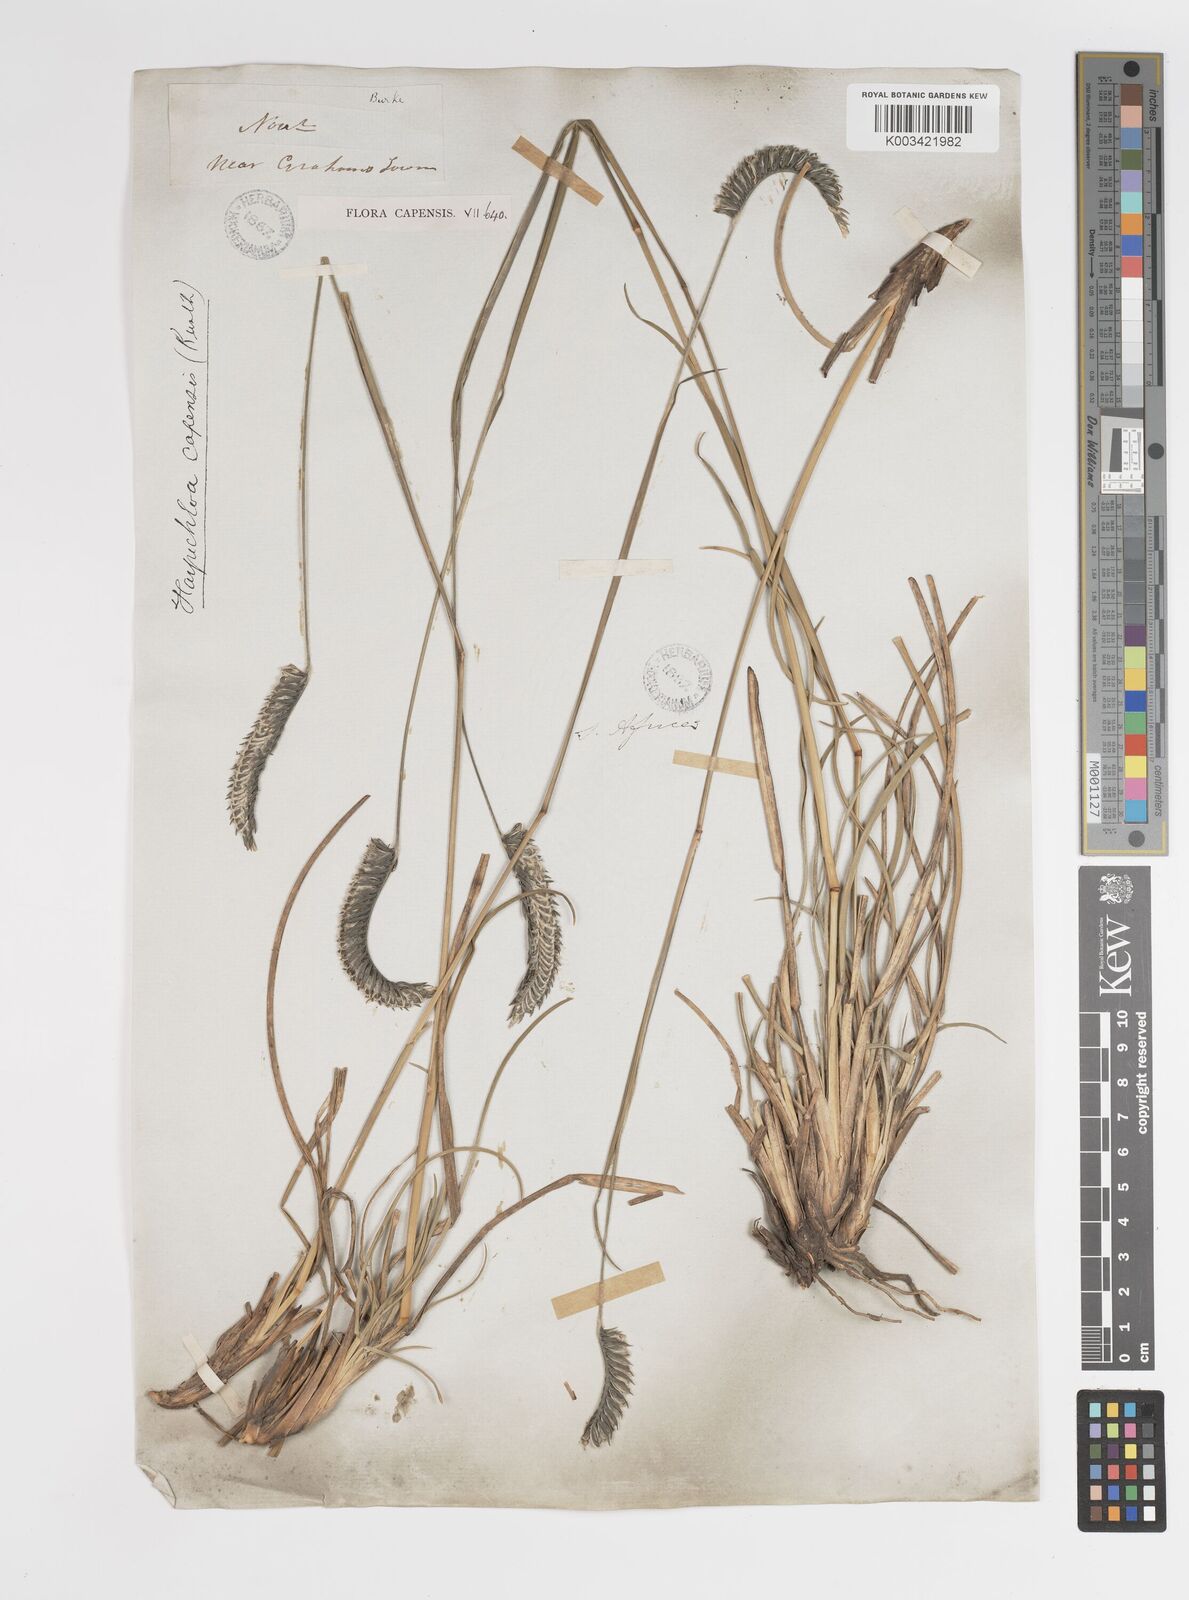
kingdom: Plantae
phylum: Tracheophyta
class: Liliopsida
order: Poales
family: Poaceae
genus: Harpochloa
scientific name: Harpochloa falx
